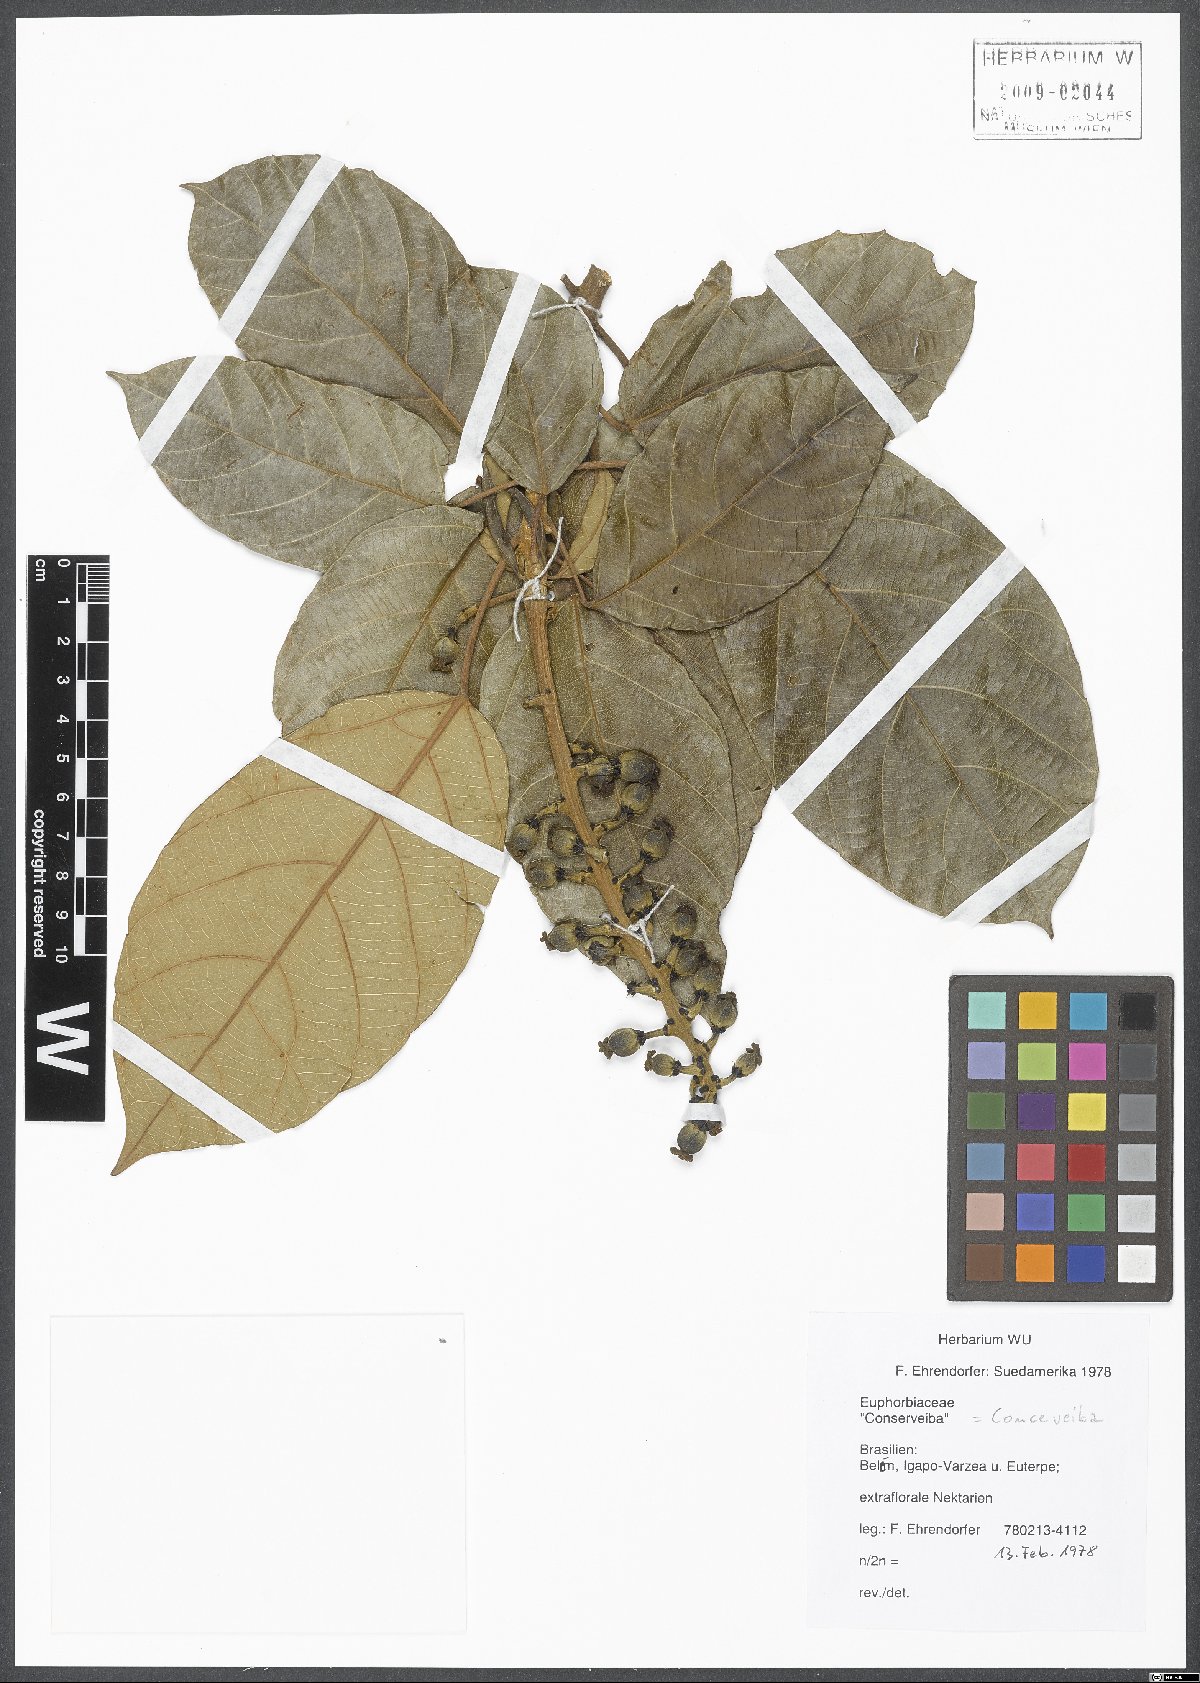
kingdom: Plantae
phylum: Tracheophyta
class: Magnoliopsida
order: Malpighiales
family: Euphorbiaceae
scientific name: Euphorbiaceae
